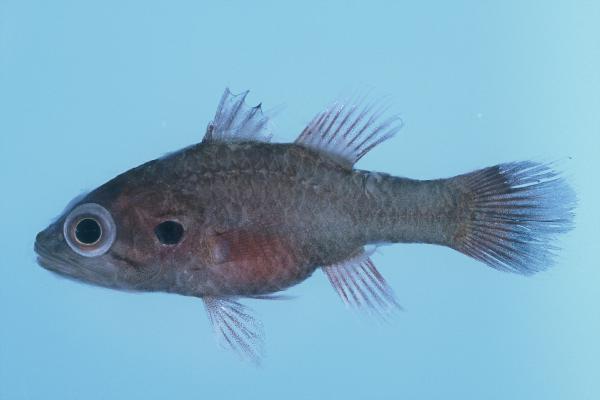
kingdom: Animalia
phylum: Chordata
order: Perciformes
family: Apogonidae
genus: Fowleria
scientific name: Fowleria aurita
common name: Crosseyed cardinalfish
